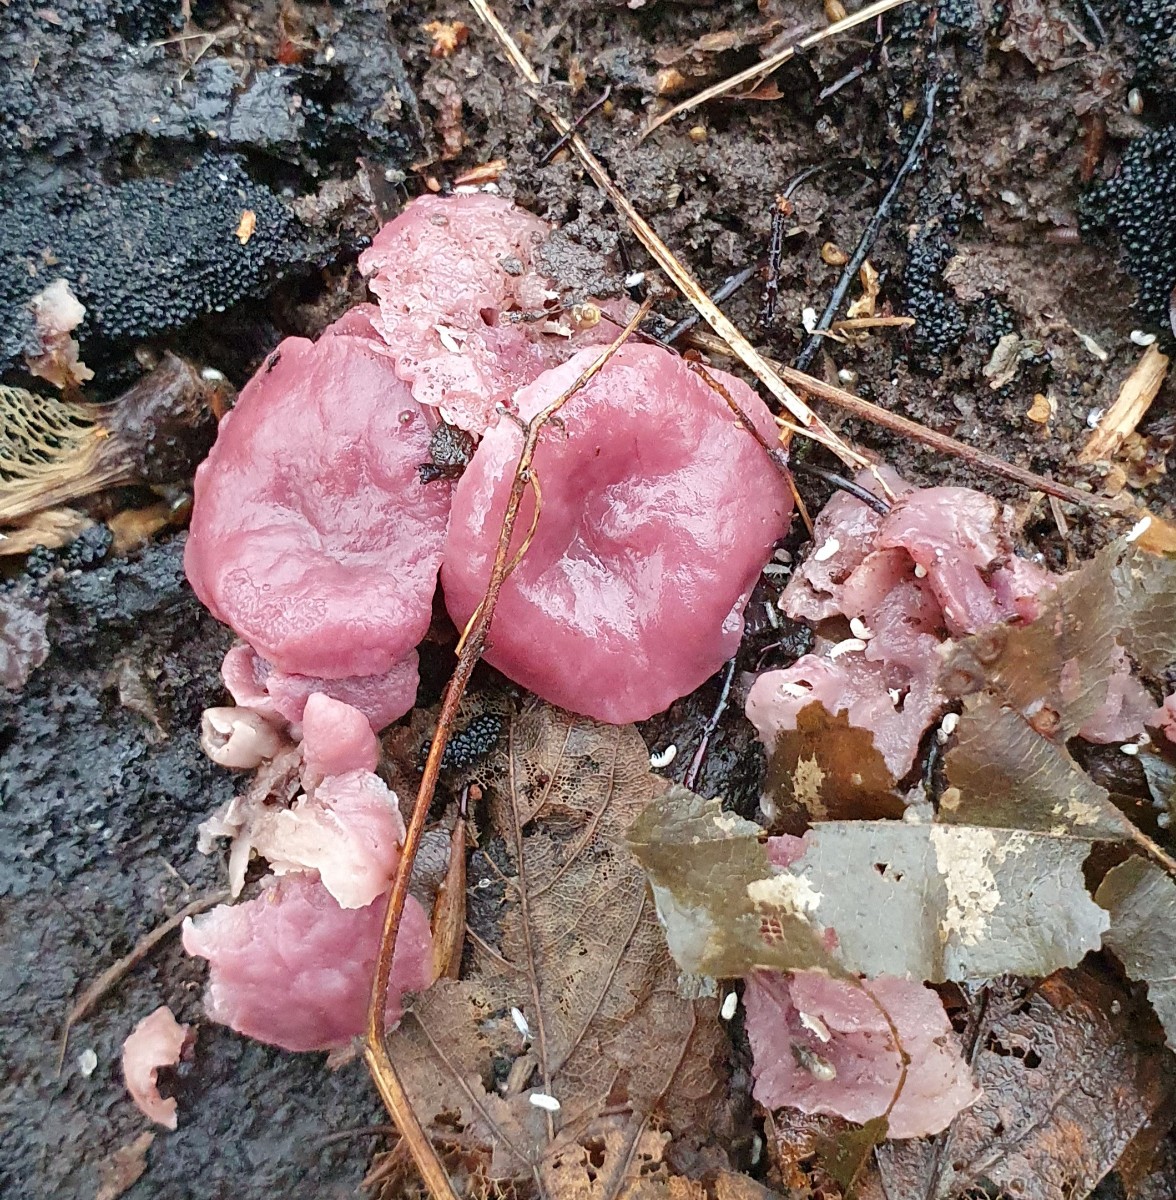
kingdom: Fungi
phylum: Ascomycota
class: Leotiomycetes
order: Helotiales
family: Gelatinodiscaceae
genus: Ascocoryne
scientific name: Ascocoryne cylichnium
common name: stor sejskive
